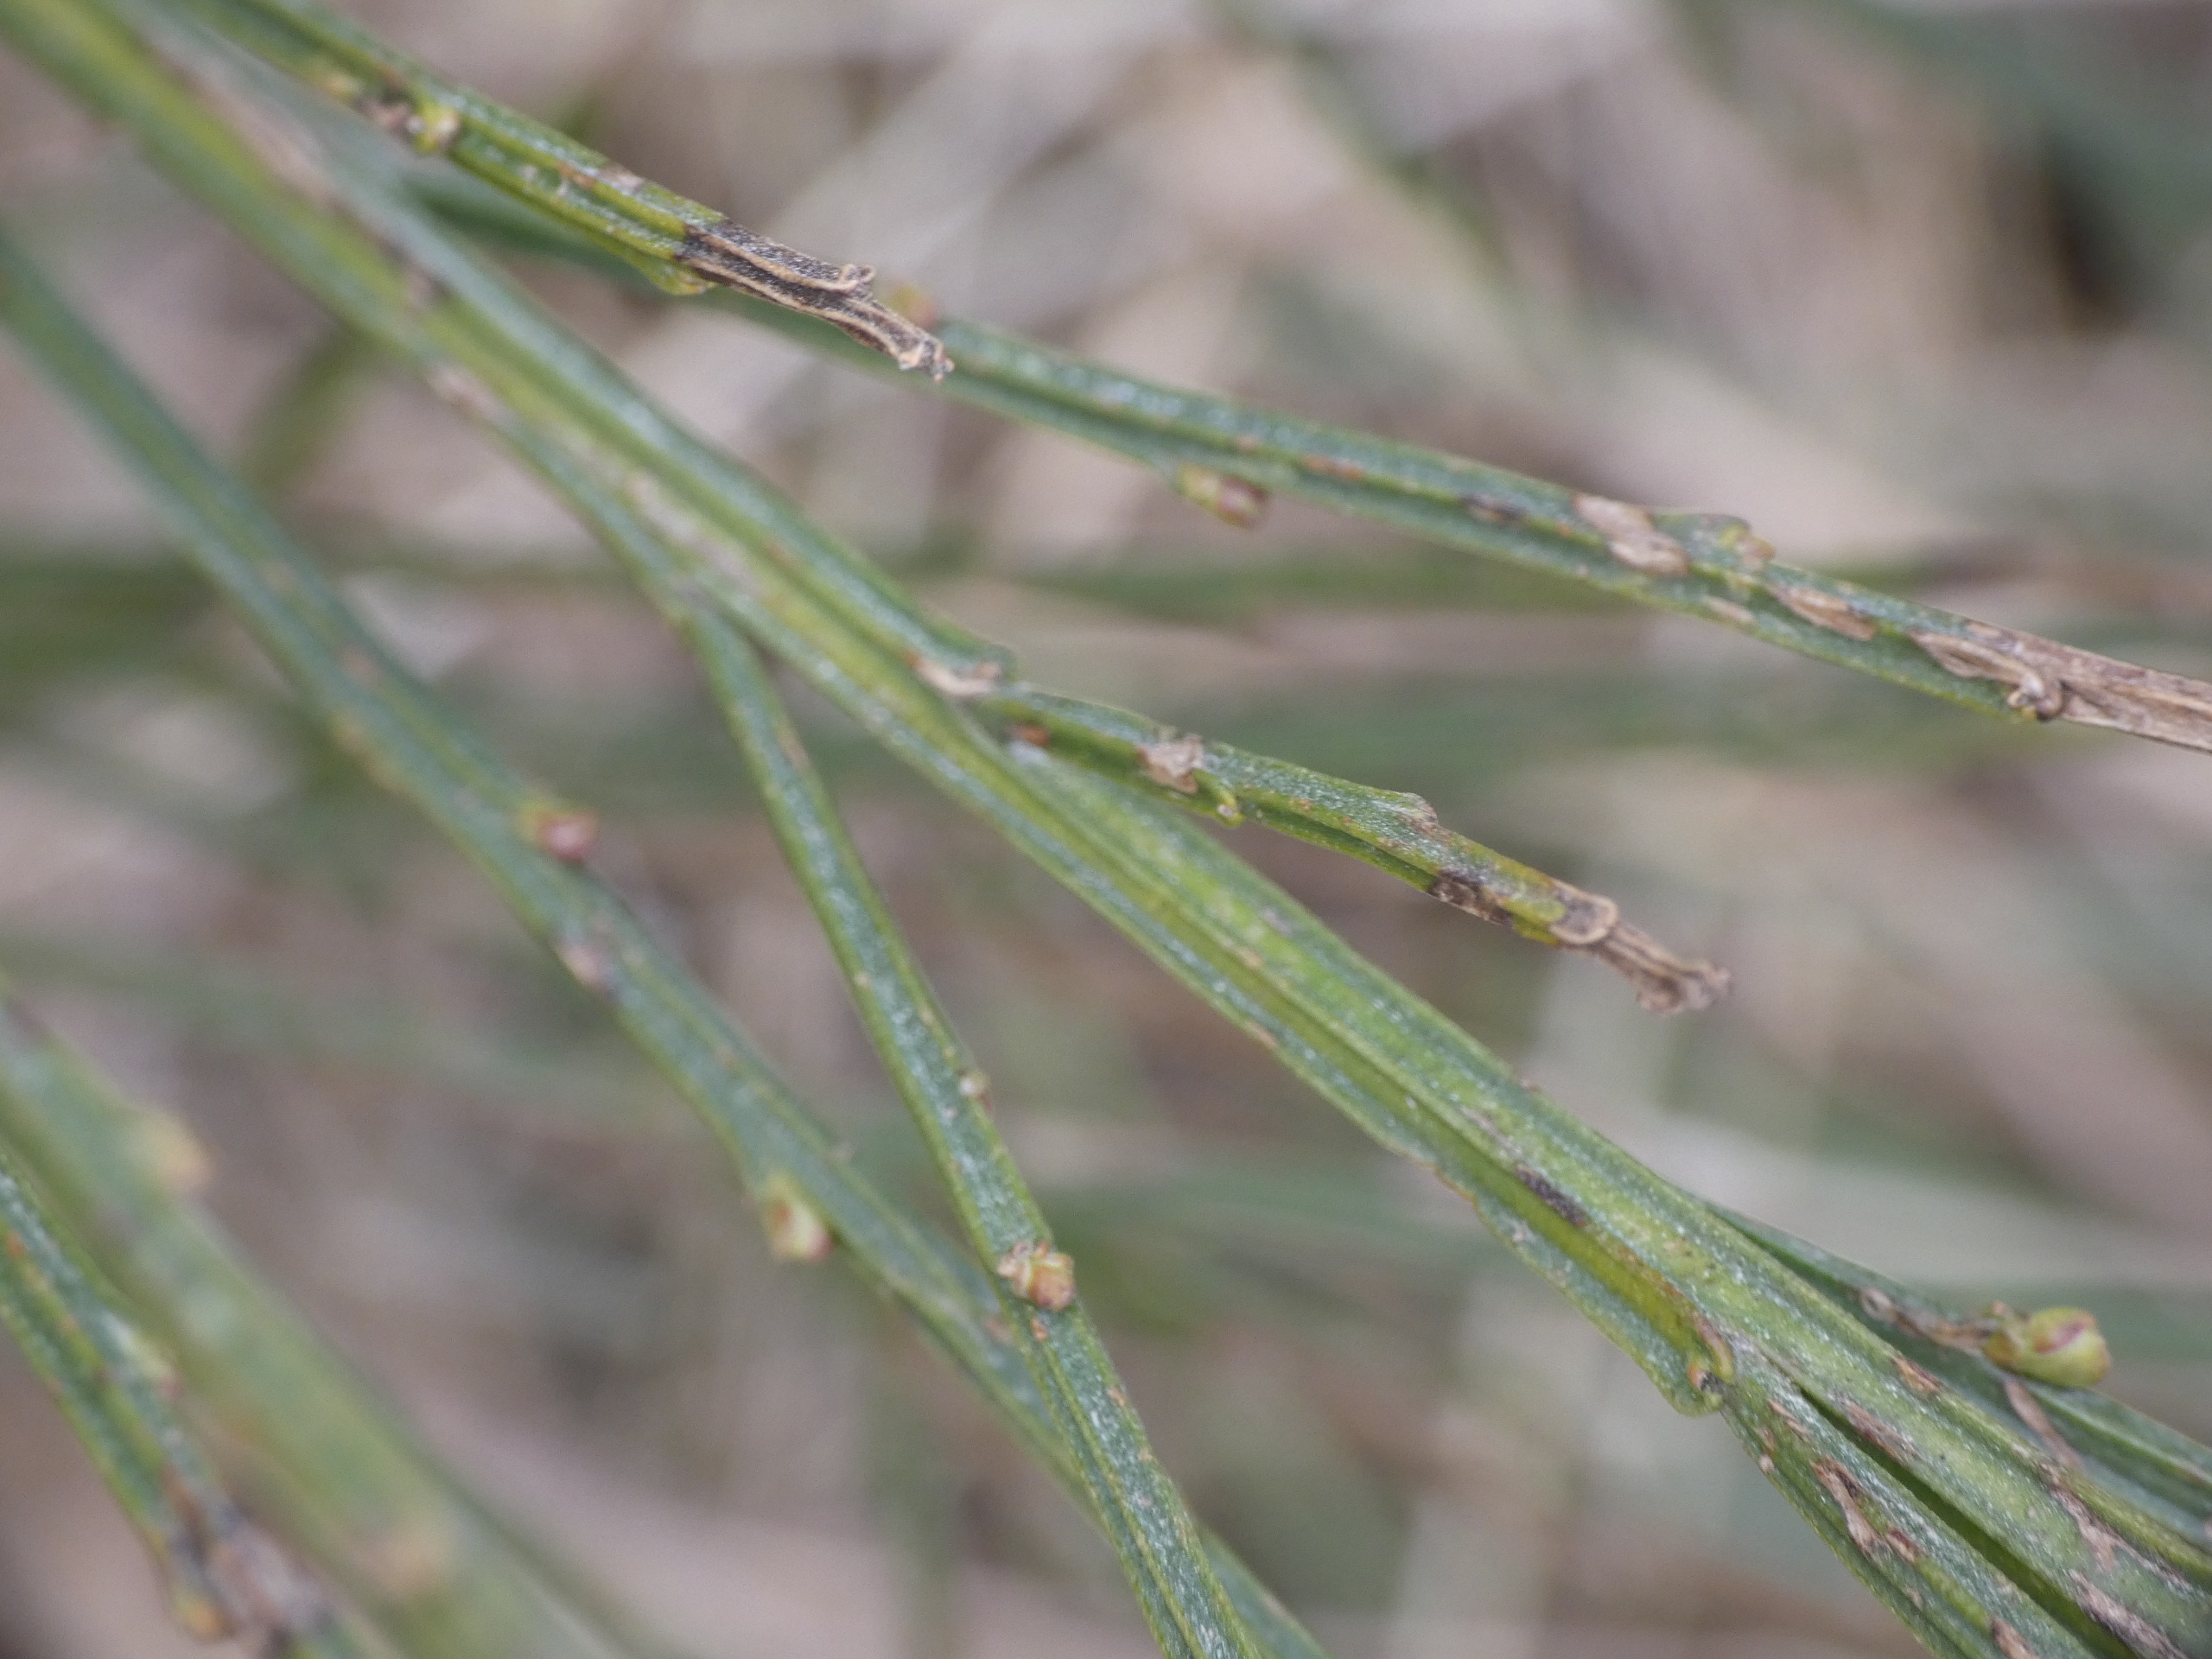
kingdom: Plantae
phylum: Tracheophyta
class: Magnoliopsida
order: Fabales
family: Fabaceae
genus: Cytisus
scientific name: Cytisus scoparius
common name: Almindelig gyvel
